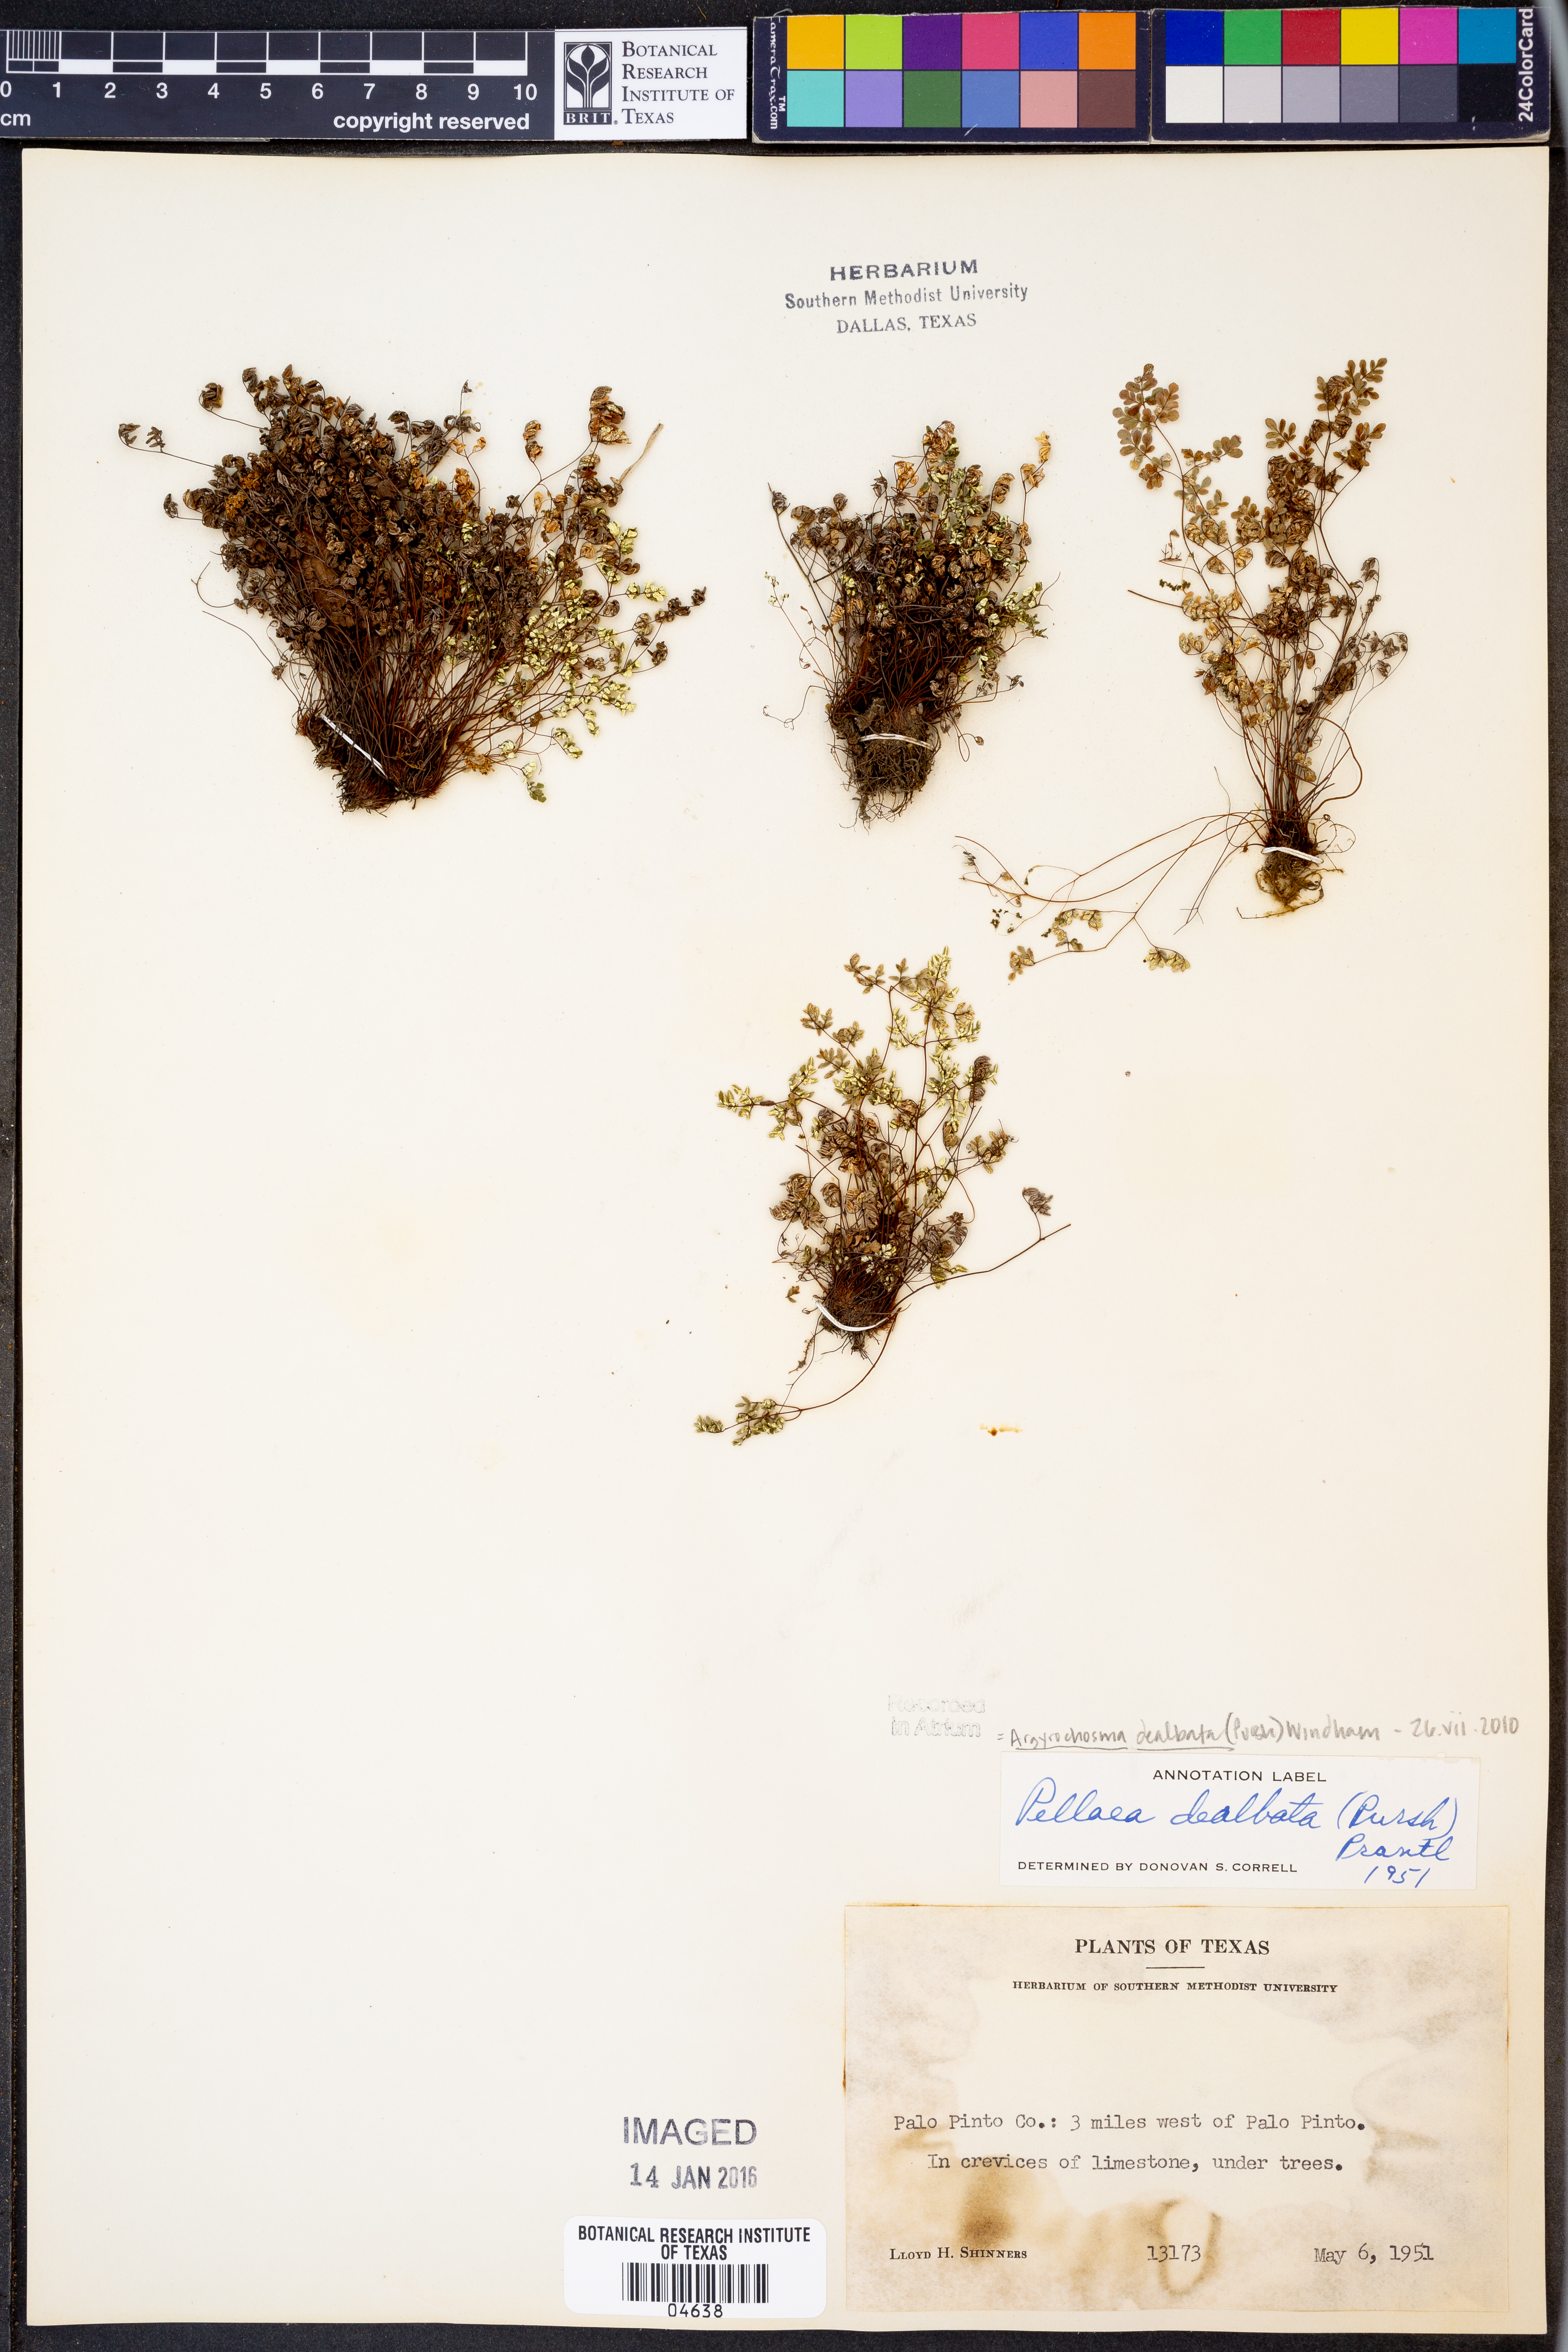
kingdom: Plantae
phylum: Tracheophyta
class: Polypodiopsida
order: Polypodiales
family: Pteridaceae
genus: Argyrochosma
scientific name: Argyrochosma dealbata
